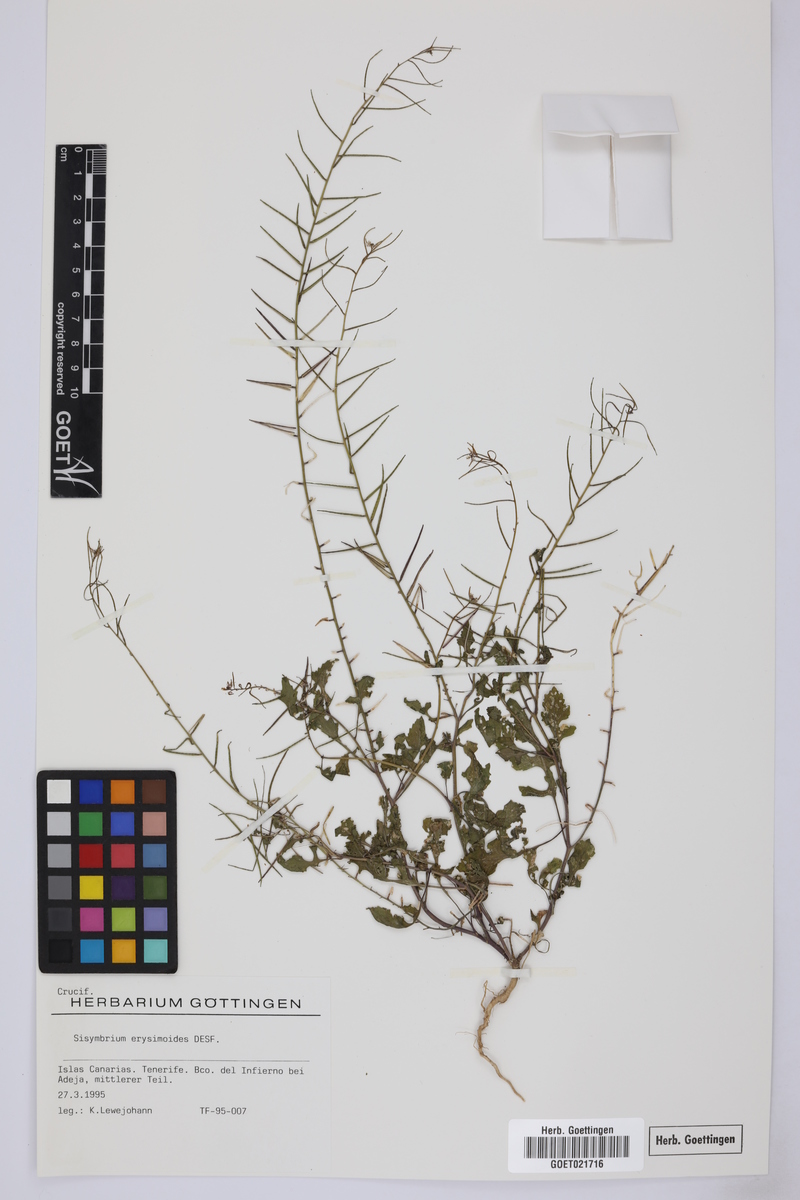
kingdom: Plantae
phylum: Tracheophyta
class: Magnoliopsida
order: Brassicales
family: Brassicaceae
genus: Sisymbrium
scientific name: Sisymbrium erysimoides
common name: French rocket
